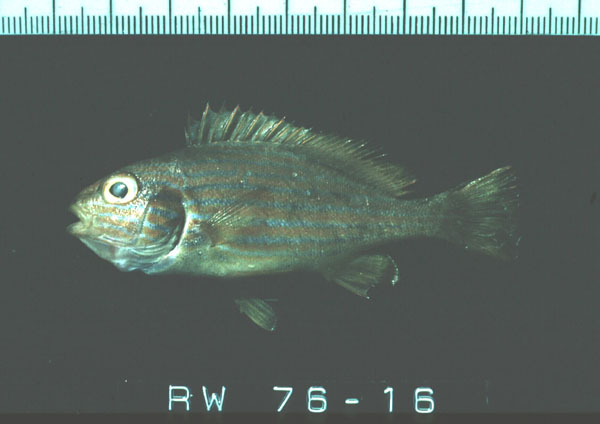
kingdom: Animalia
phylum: Chordata
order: Perciformes
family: Haemulidae
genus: Plectorhinchus
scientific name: Plectorhinchus gaterinus
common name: Blackspotted rubberlip
